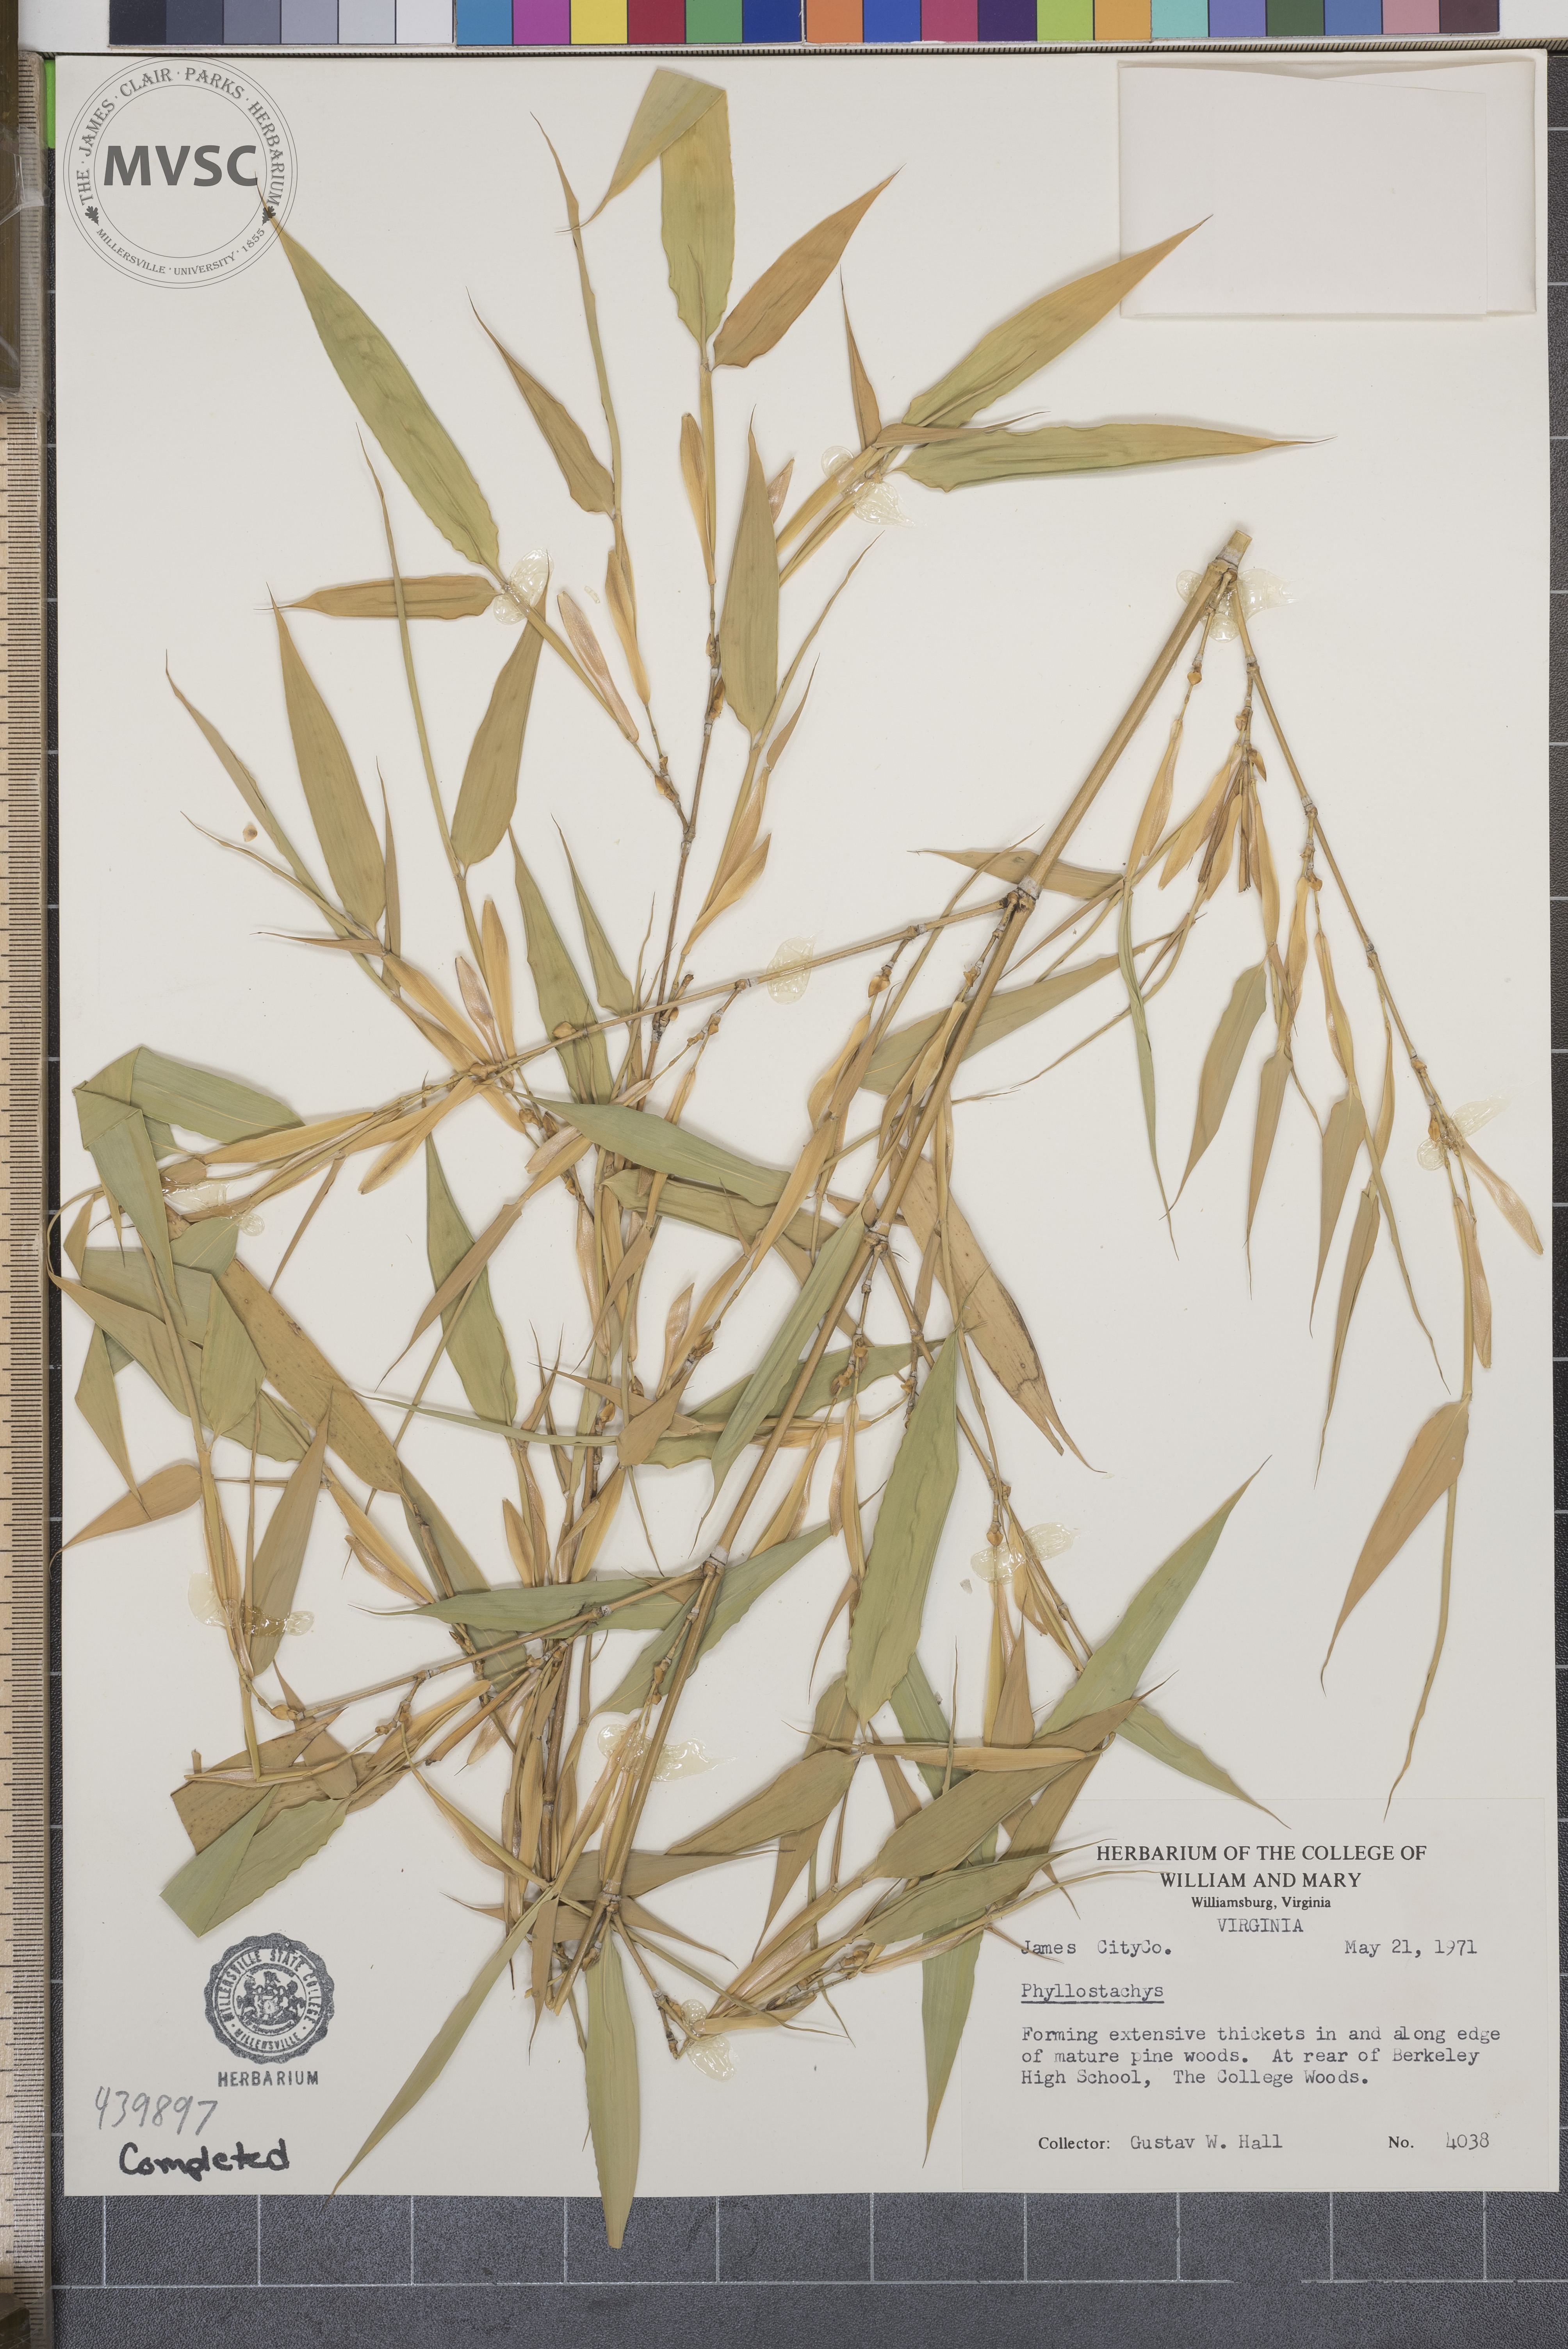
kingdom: Plantae
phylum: Tracheophyta
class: Liliopsida
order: Poales
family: Poaceae
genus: Phyllostachys
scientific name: Phyllostachys
